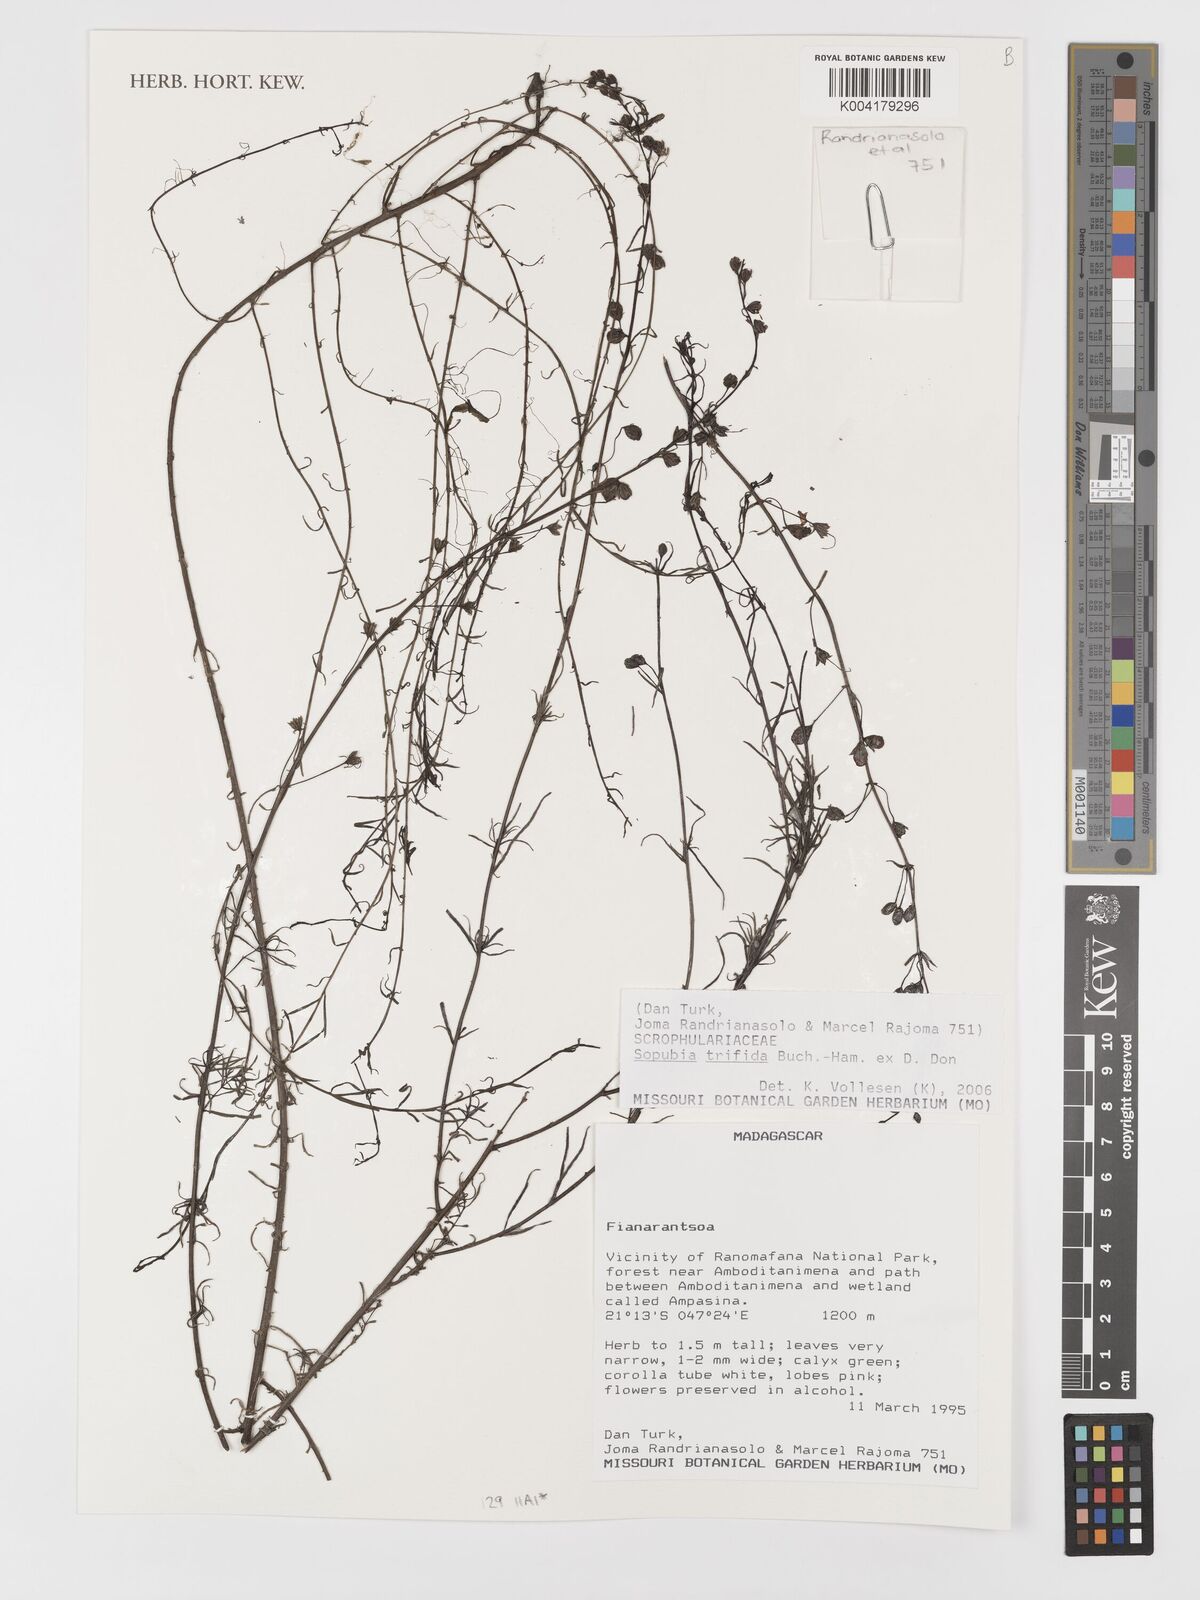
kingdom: Plantae
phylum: Tracheophyta
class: Magnoliopsida
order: Lamiales
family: Orobanchaceae
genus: Sopubia
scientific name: Sopubia trifida
